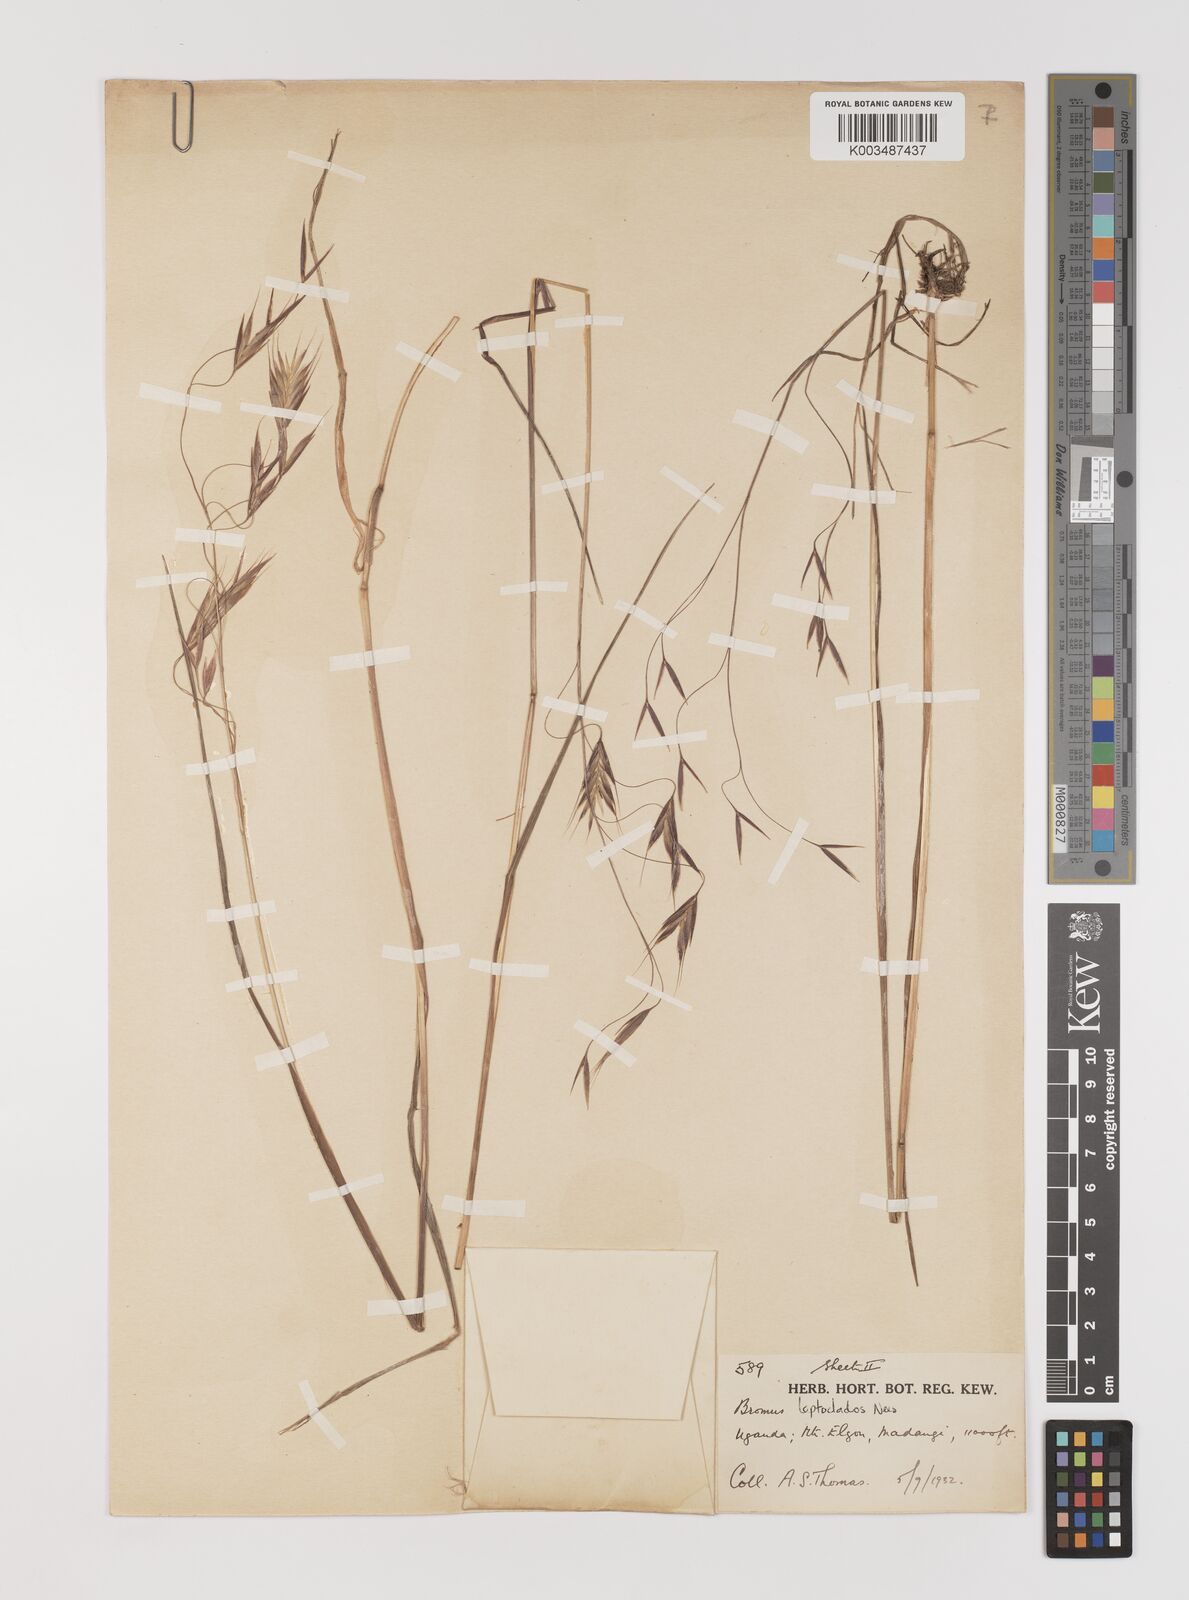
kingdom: Plantae
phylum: Tracheophyta
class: Liliopsida
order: Poales
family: Poaceae
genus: Bromus
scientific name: Bromus leptoclados
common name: Mountain bromegrass
